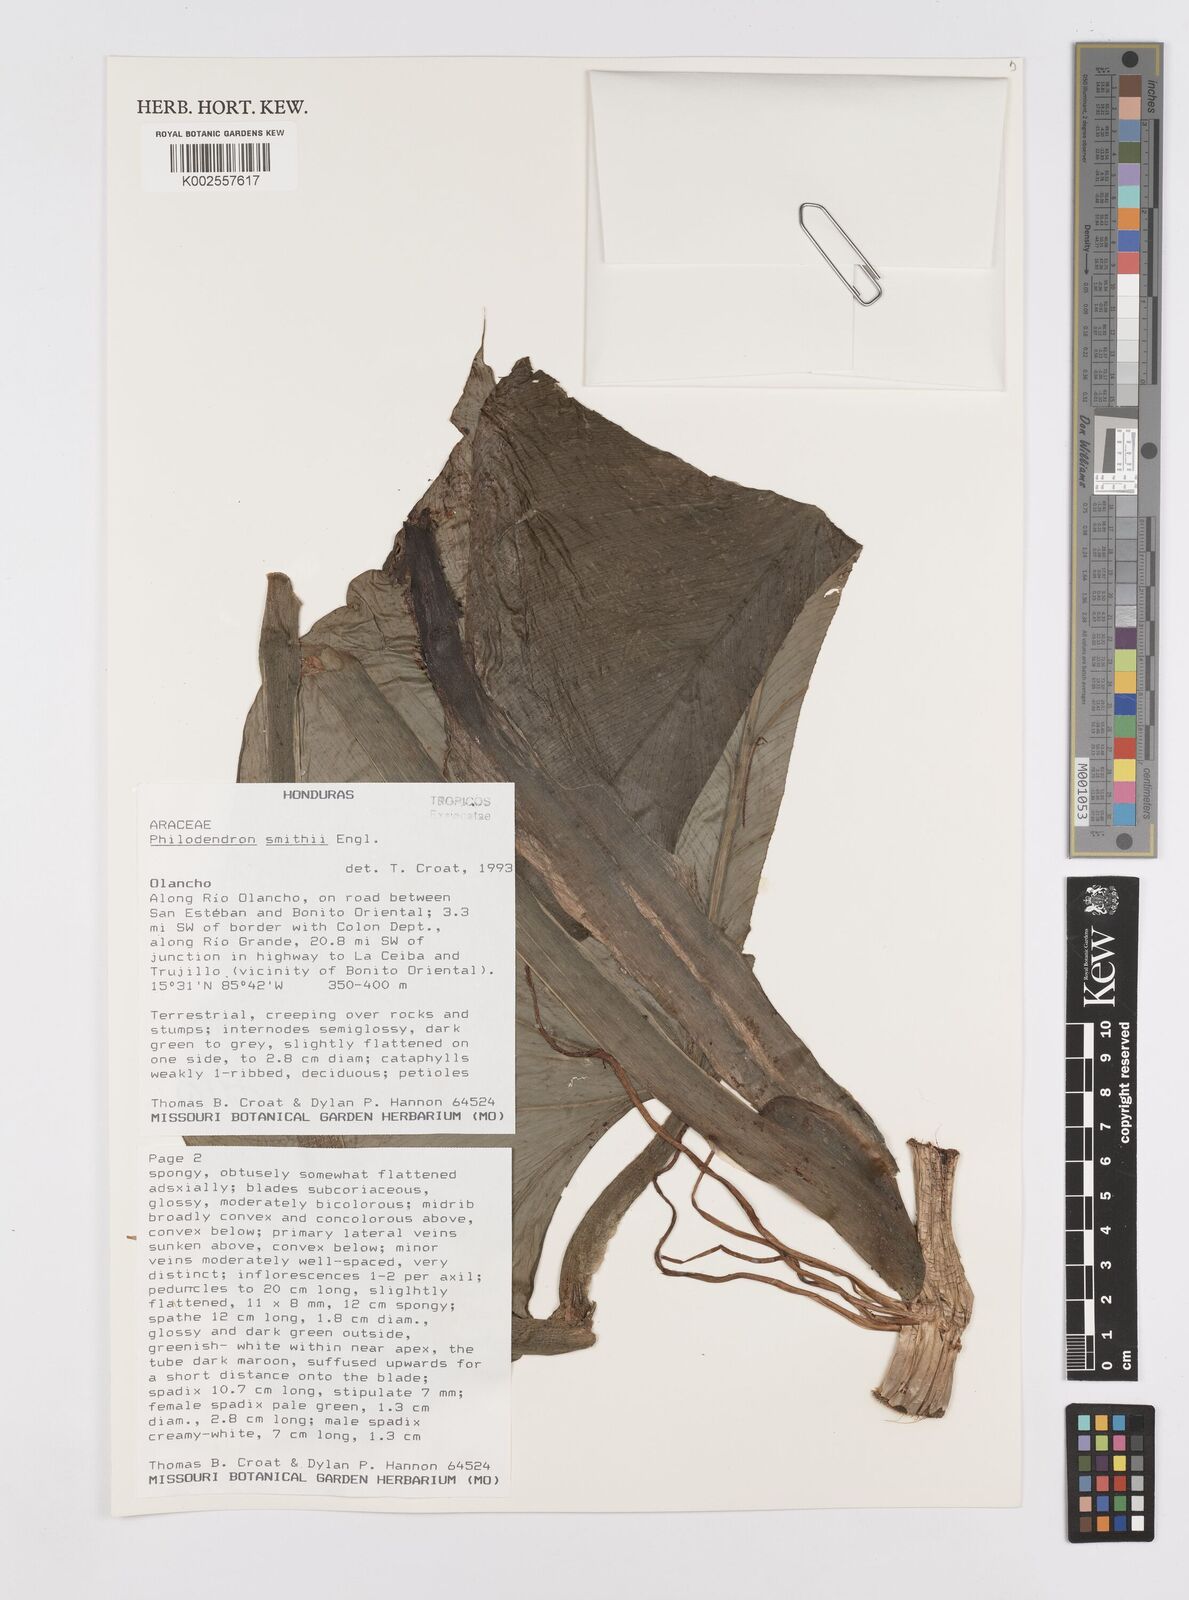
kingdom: Plantae
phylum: Tracheophyta
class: Liliopsida
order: Alismatales
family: Araceae
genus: Philodendron
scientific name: Philodendron smithii
